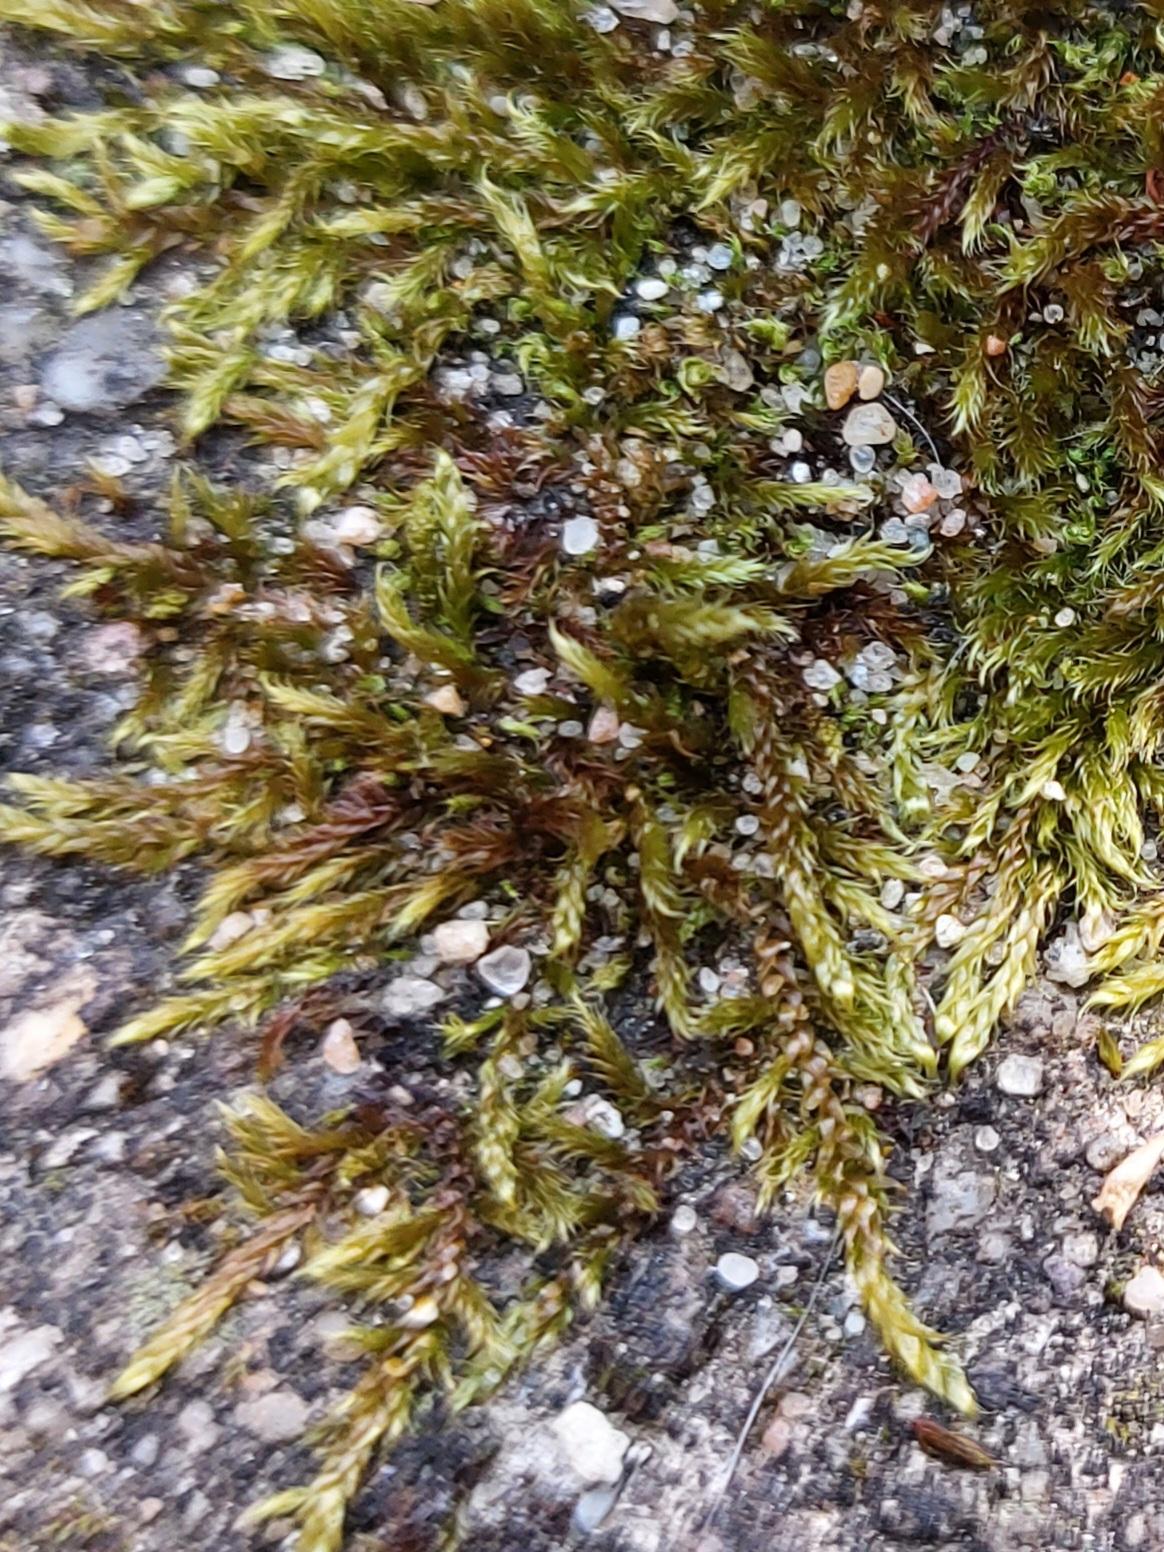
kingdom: Plantae
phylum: Bryophyta
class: Bryopsida
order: Hypnales
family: Hypnaceae
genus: Hypnum
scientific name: Hypnum cupressiforme
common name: Almindelig cypresmos
